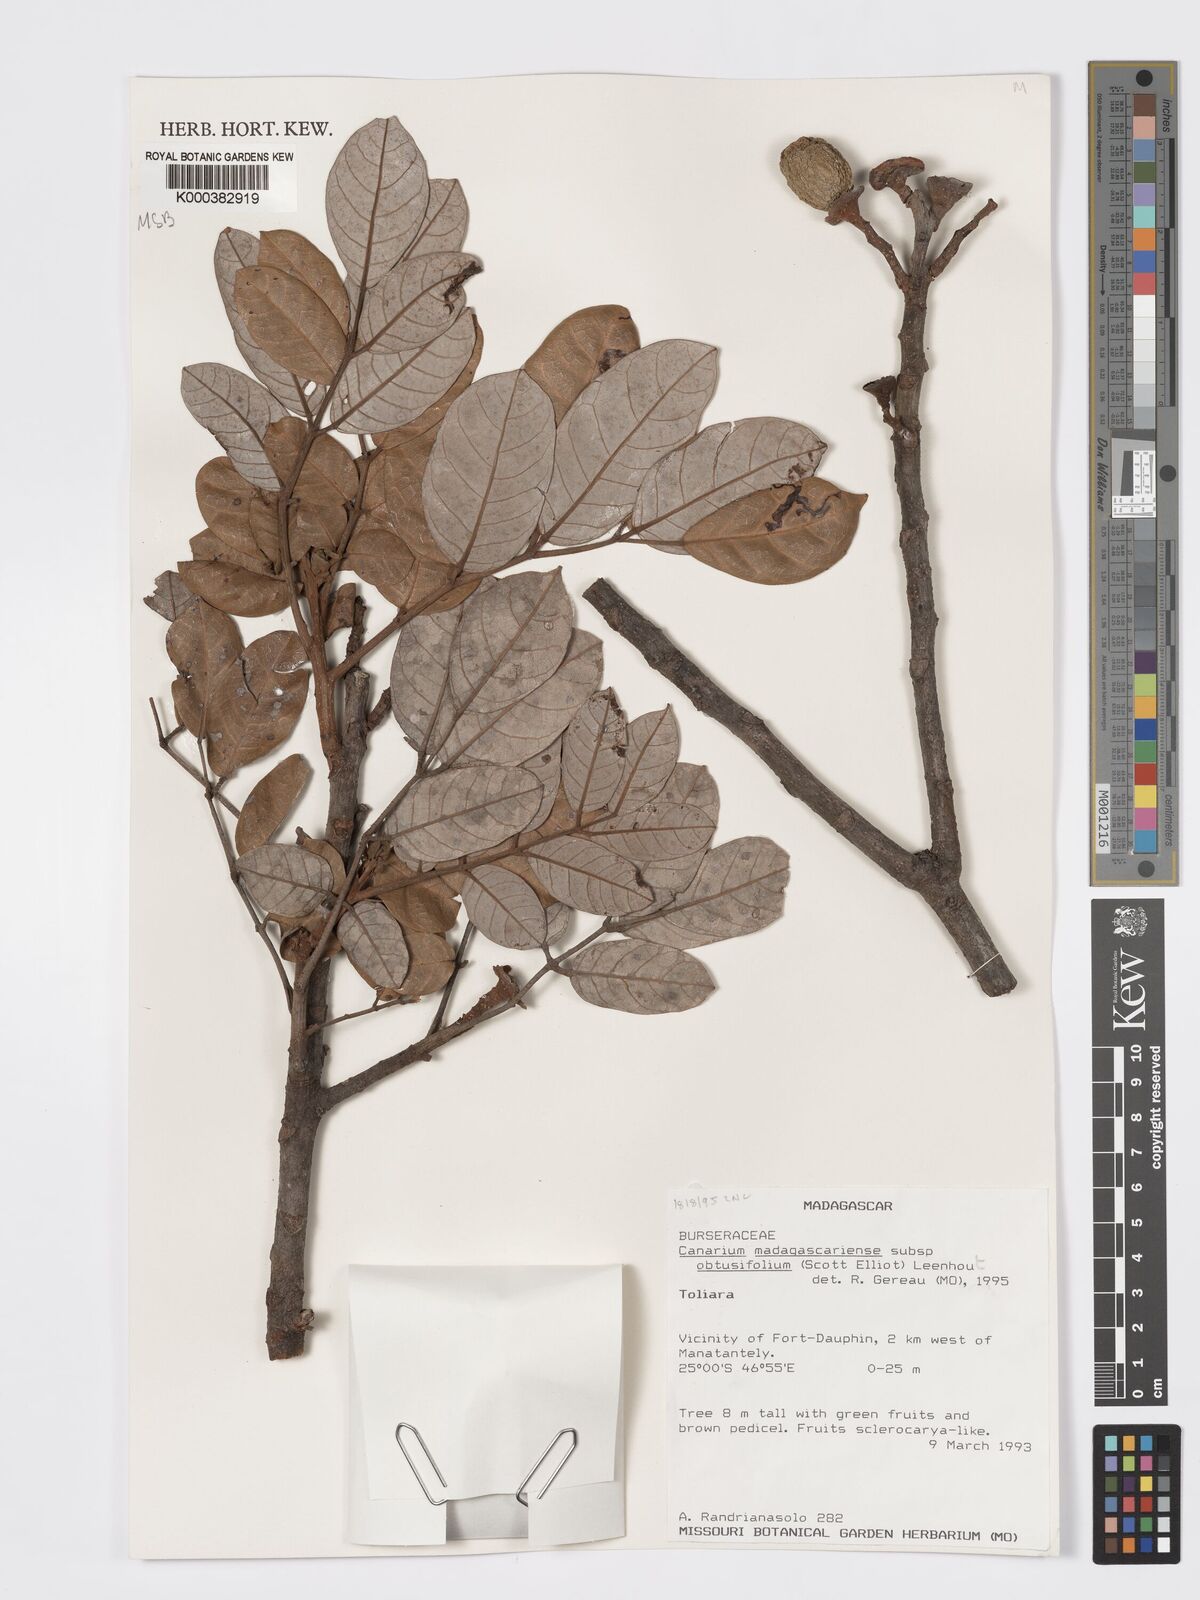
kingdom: Plantae
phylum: Tracheophyta
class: Magnoliopsida
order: Sapindales
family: Burseraceae
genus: Canarium
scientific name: Canarium madagascariense
